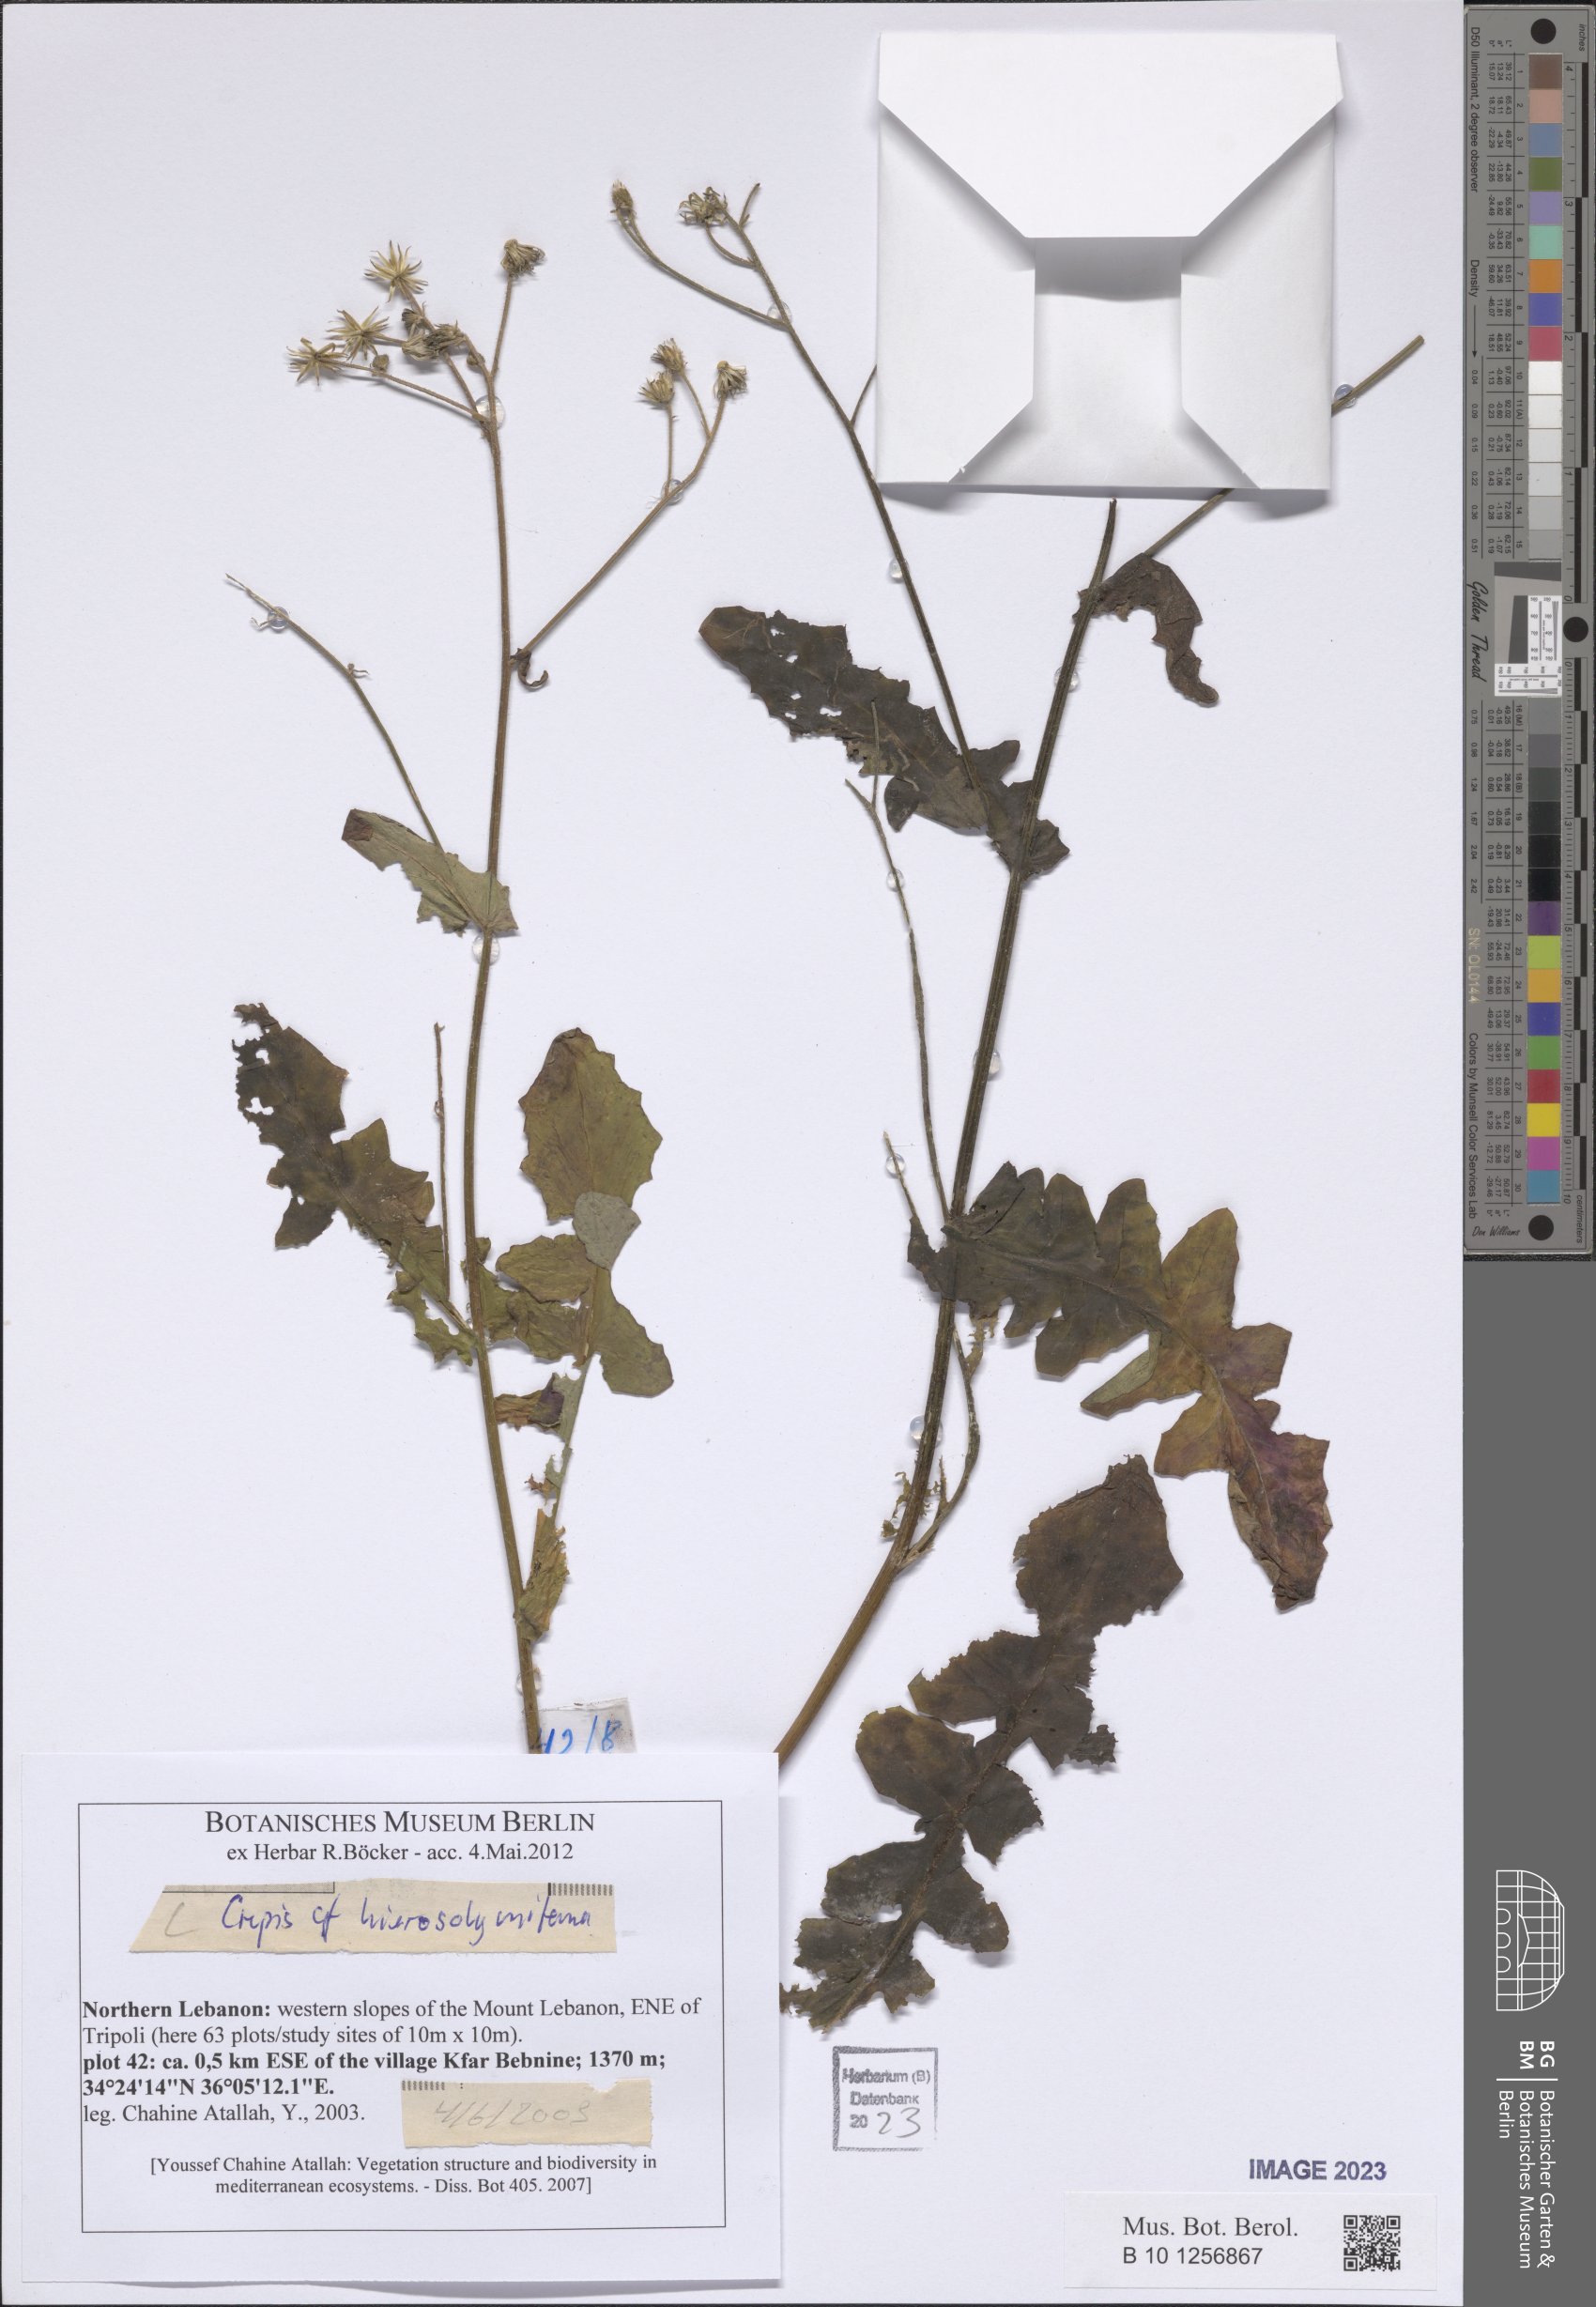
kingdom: Plantae
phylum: Tracheophyta
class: Magnoliopsida
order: Asterales
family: Asteraceae
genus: Crepis
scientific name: Crepis hierosolymitana
